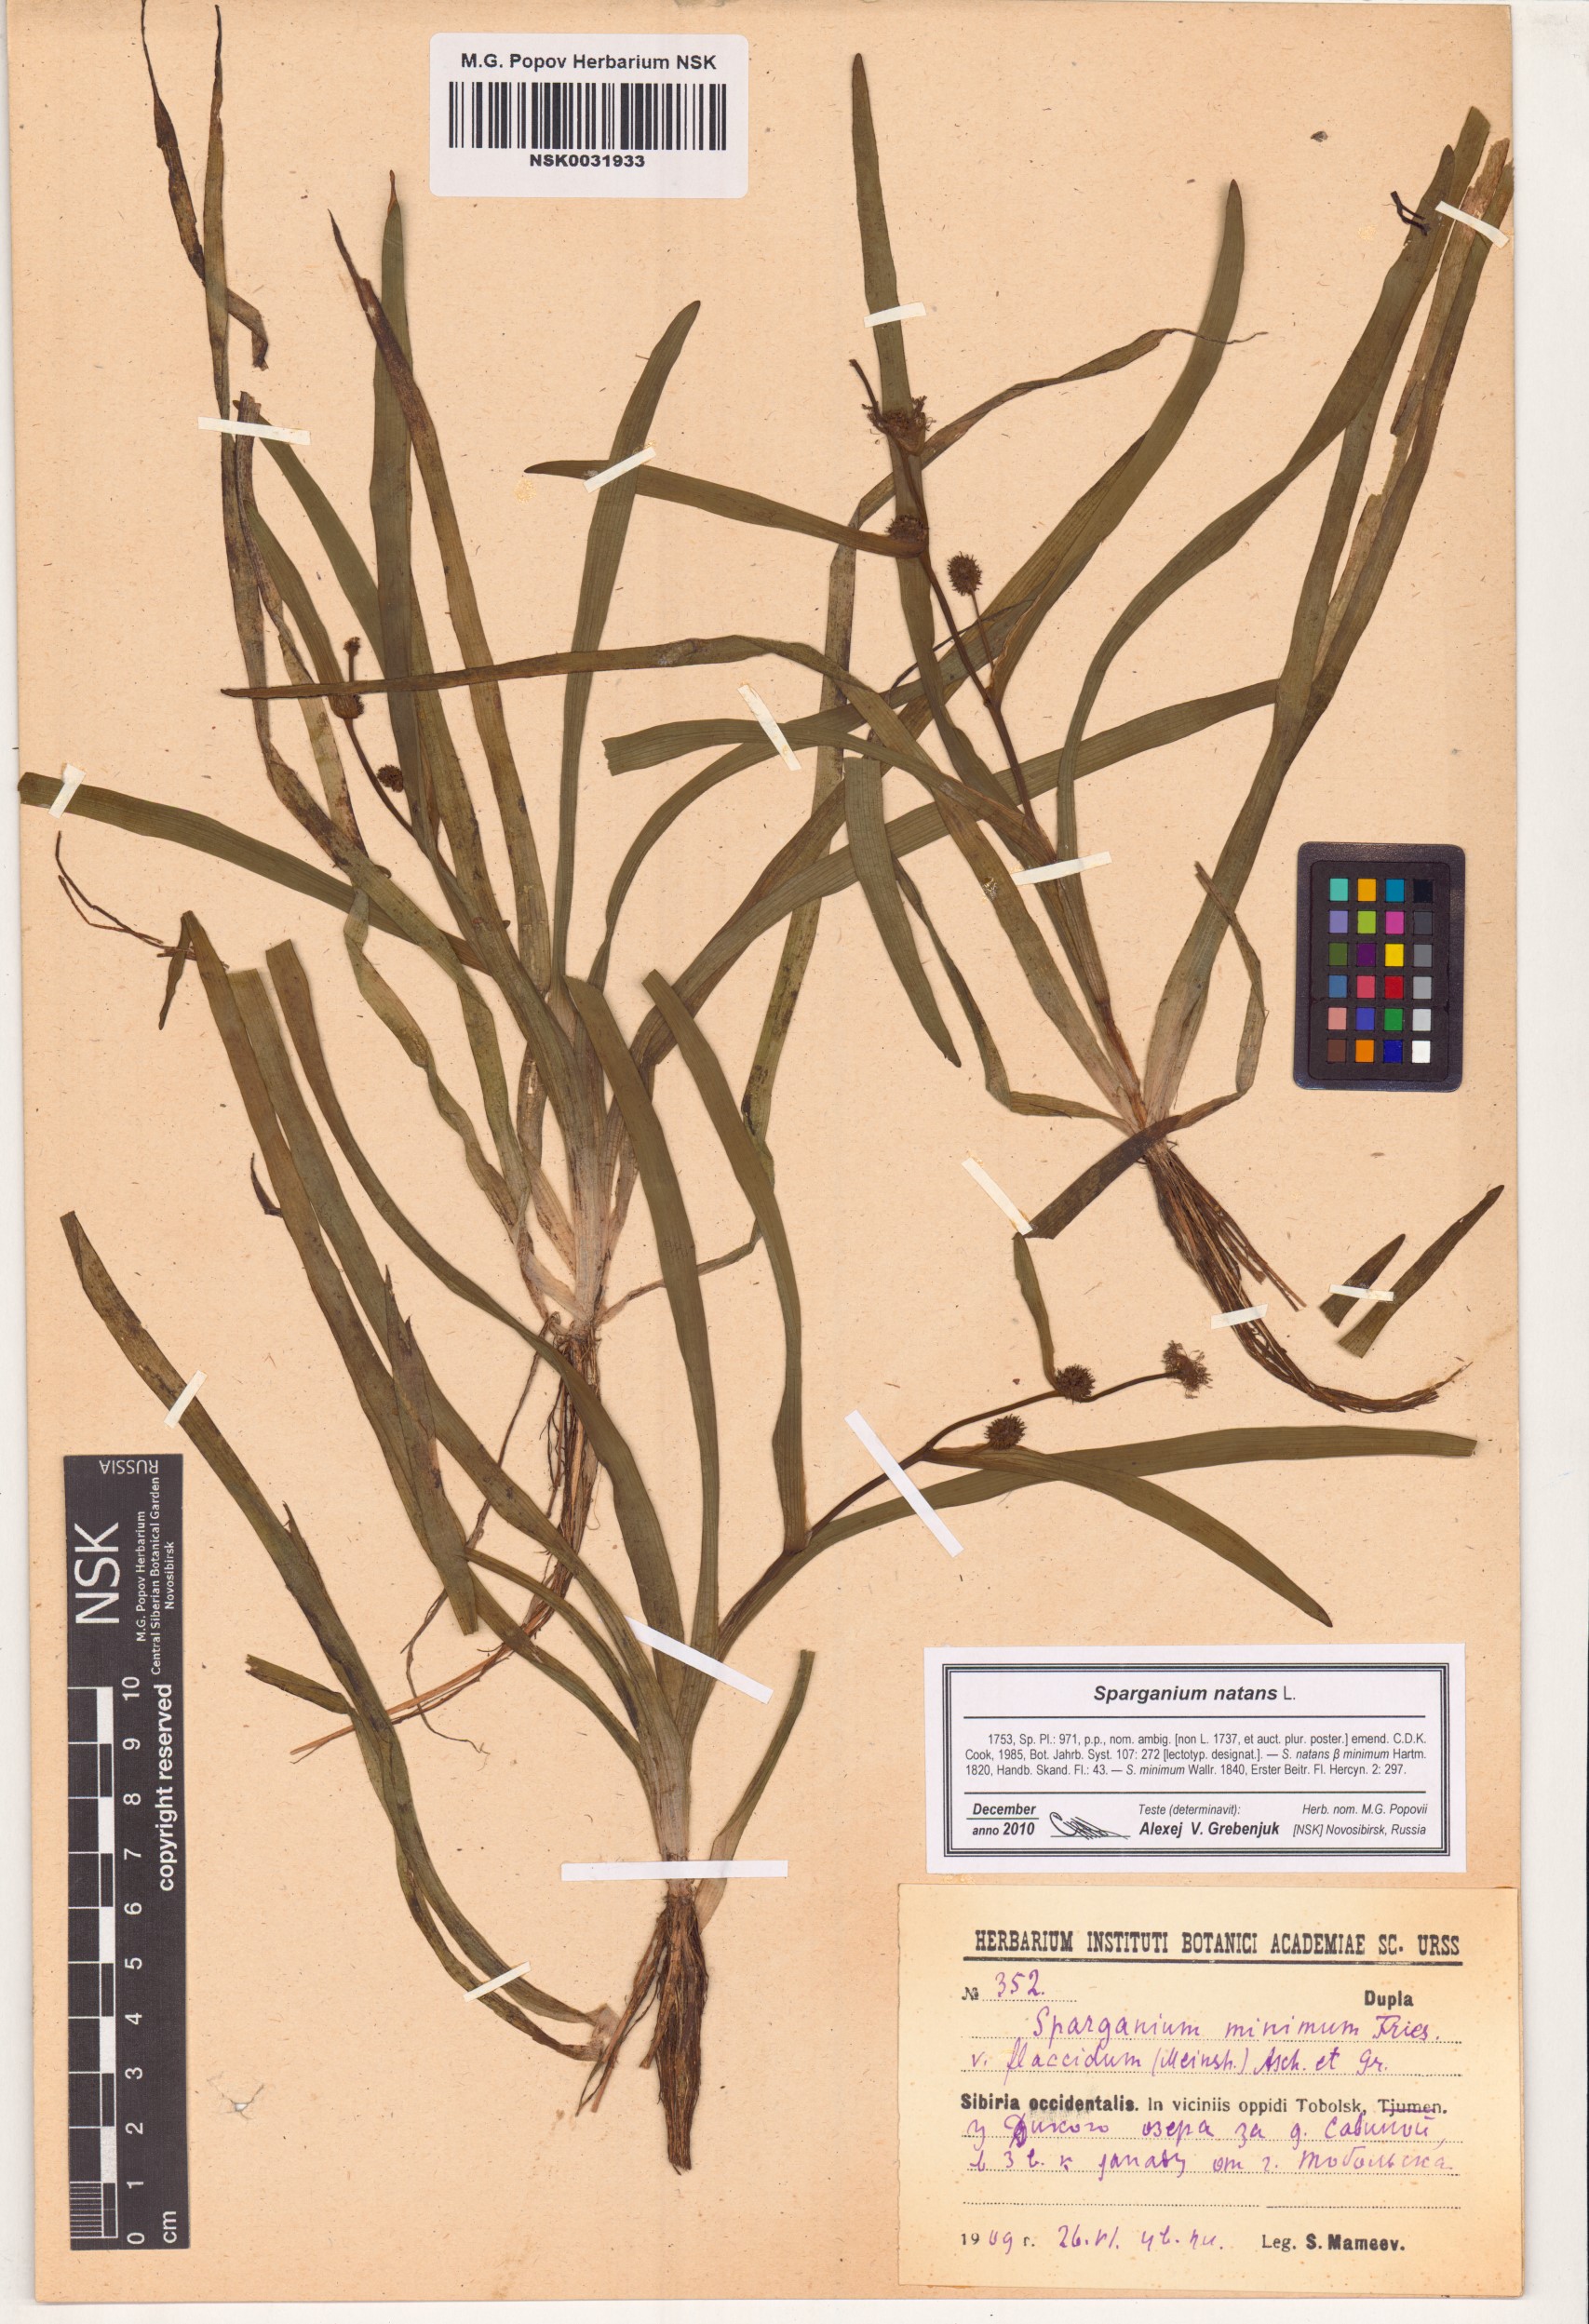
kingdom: Plantae
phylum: Tracheophyta
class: Liliopsida
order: Poales
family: Typhaceae
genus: Sparganium
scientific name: Sparganium natans
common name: Least bur-reed
